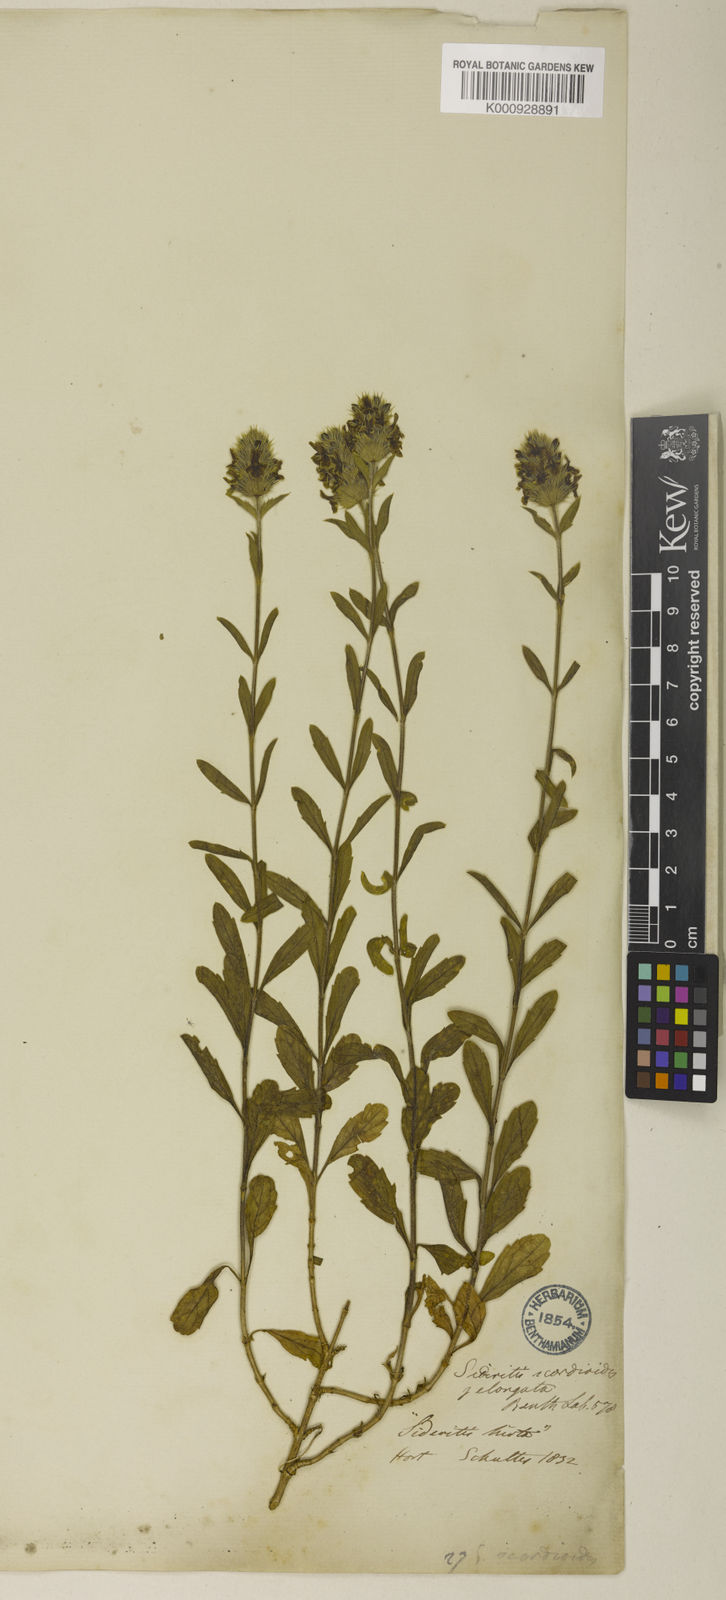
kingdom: Plantae
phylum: Tracheophyta
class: Magnoliopsida
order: Lamiales
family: Lamiaceae
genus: Sideritis
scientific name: Sideritis hyssopifolia
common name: Mountain tea
